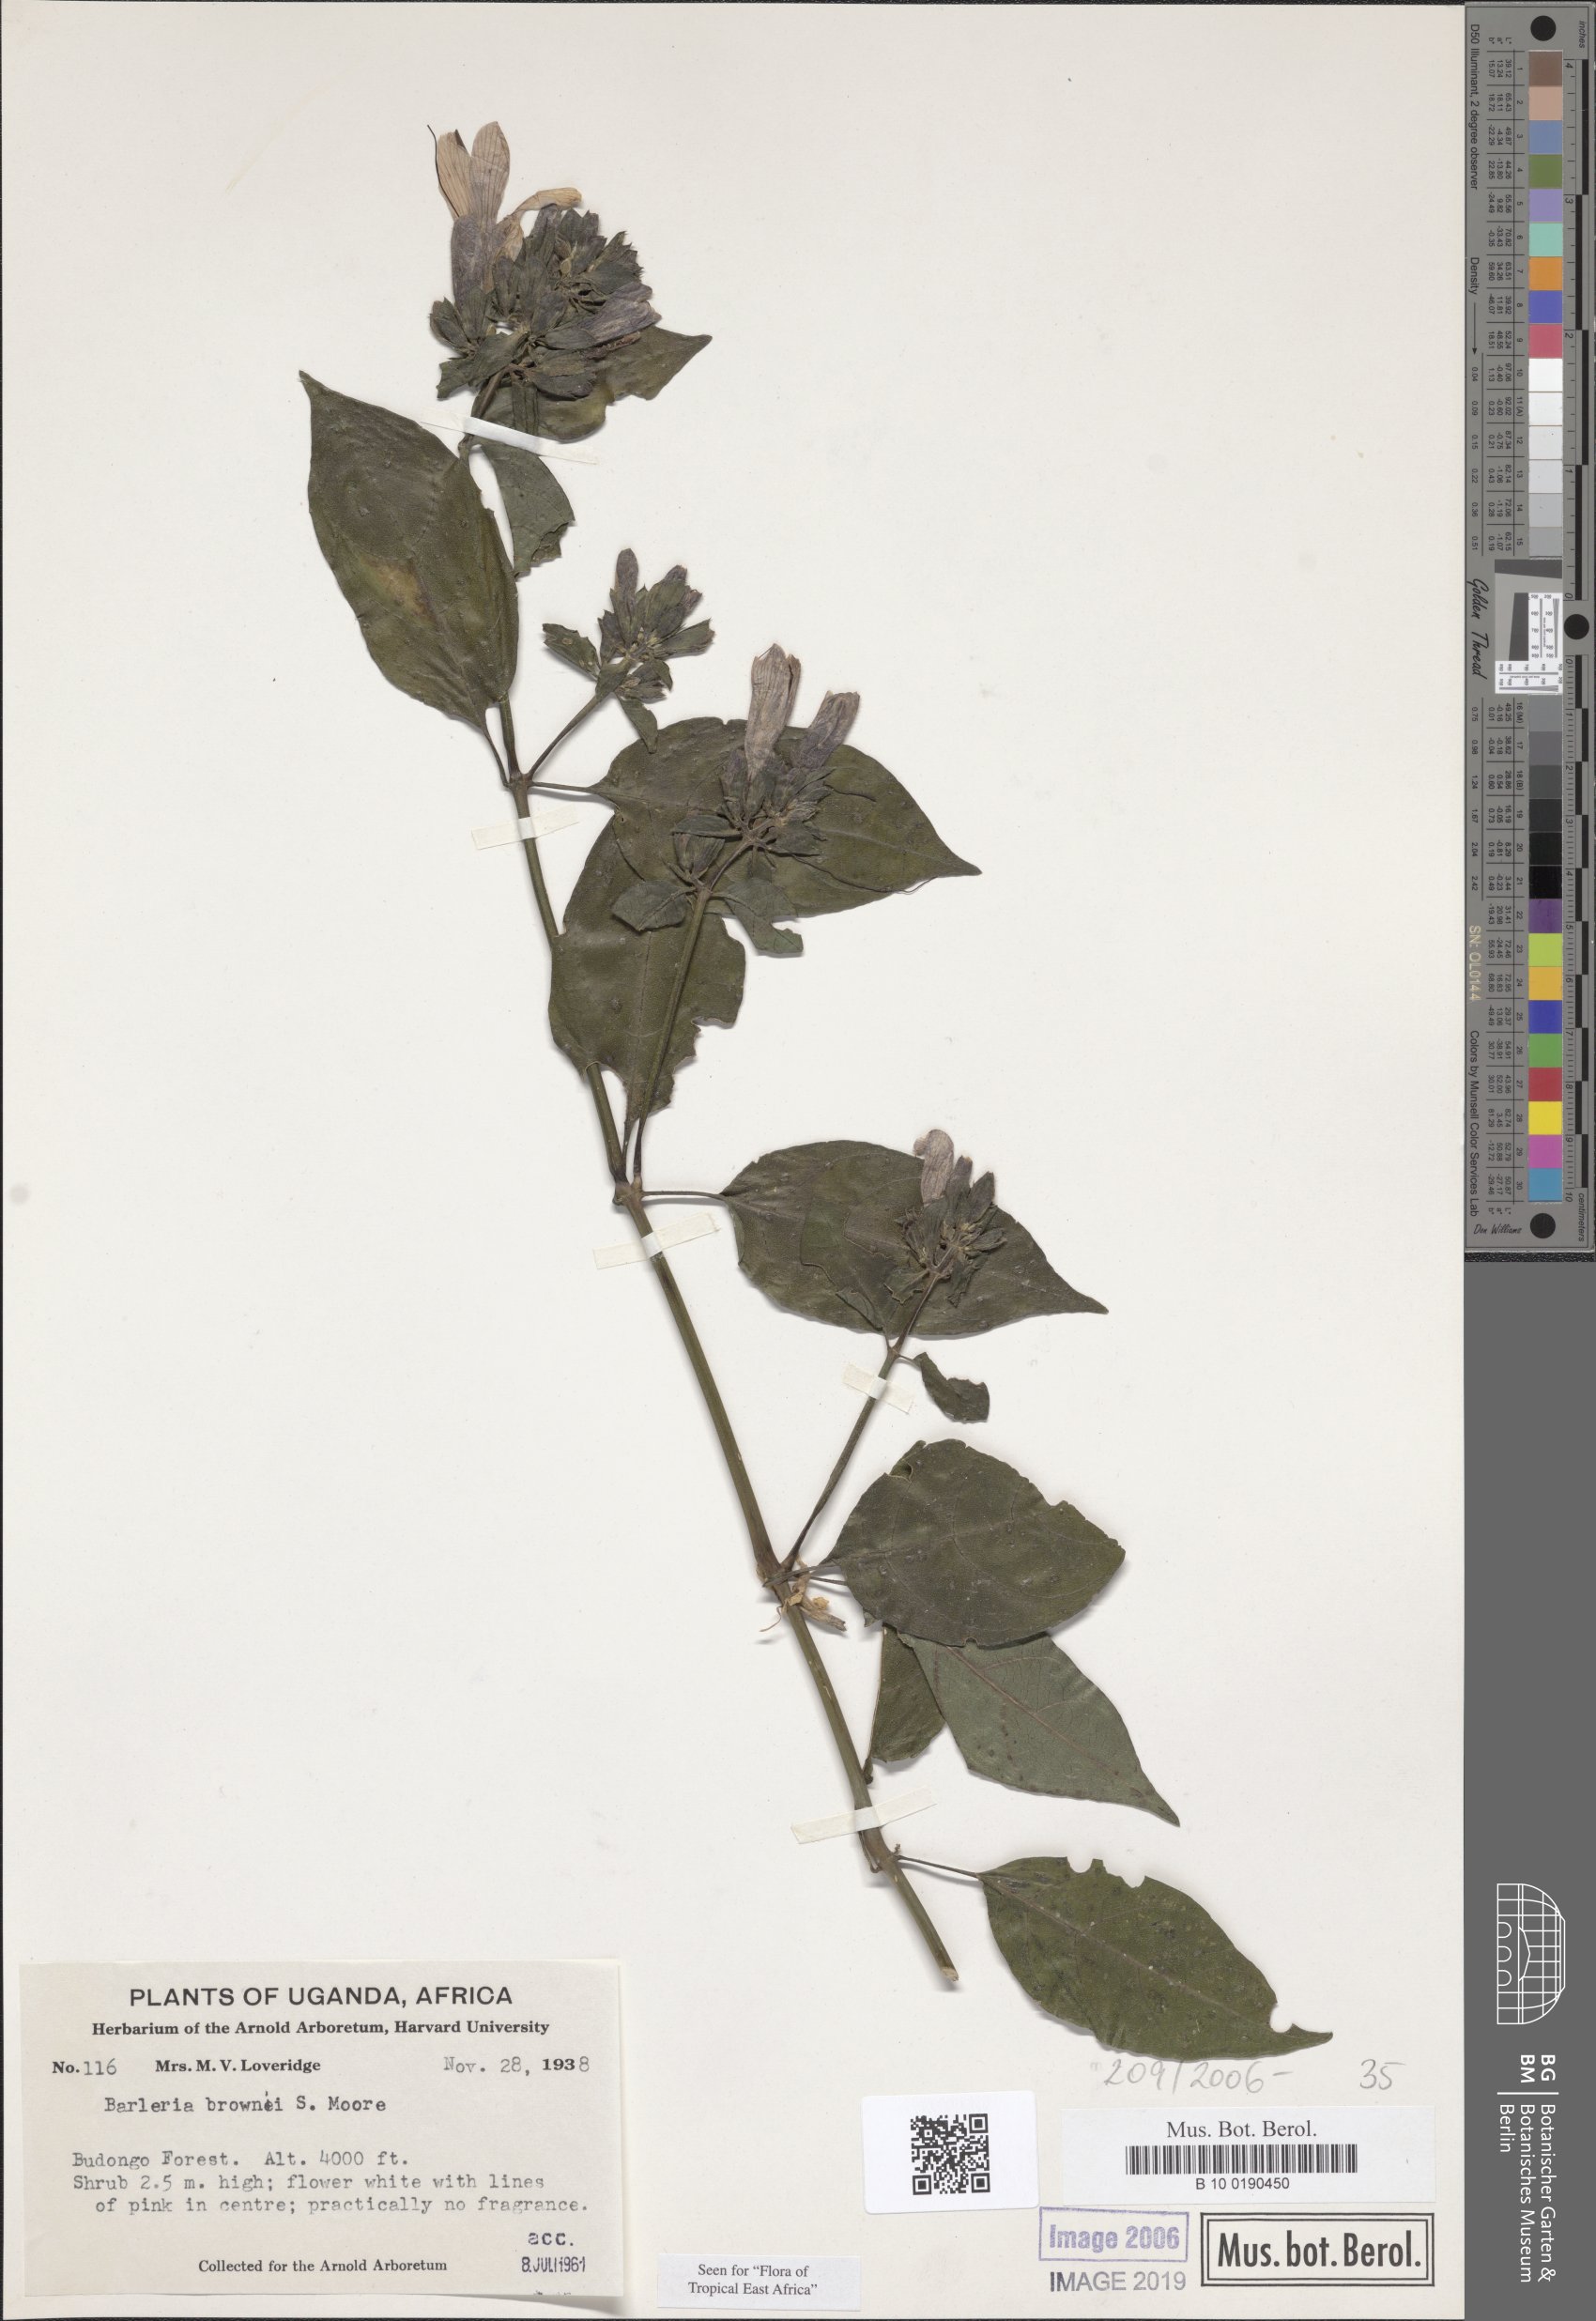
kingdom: Plantae
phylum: Tracheophyta
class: Magnoliopsida
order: Lamiales
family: Acanthaceae
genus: Barleria
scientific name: Barleria brownii
